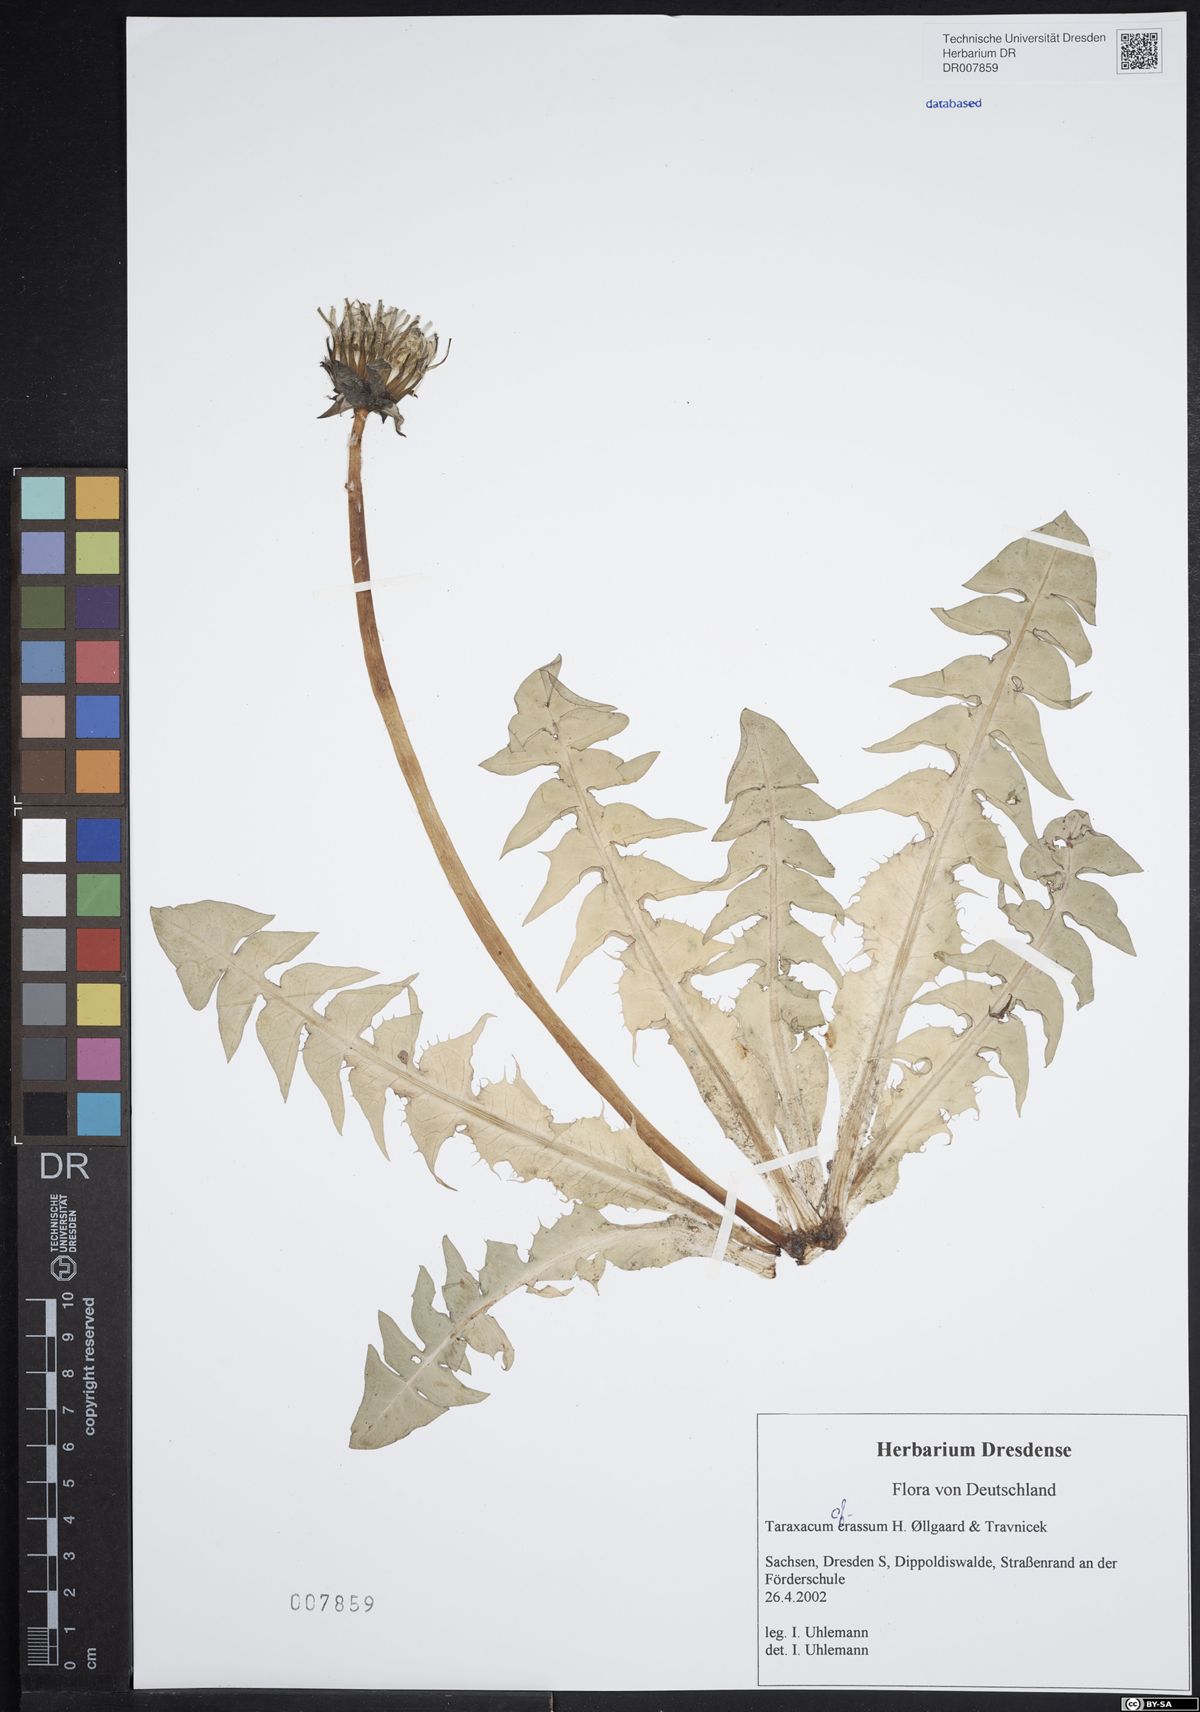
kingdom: Plantae
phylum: Tracheophyta
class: Magnoliopsida
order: Asterales
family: Asteraceae
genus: Taraxacum
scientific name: Taraxacum crassum
